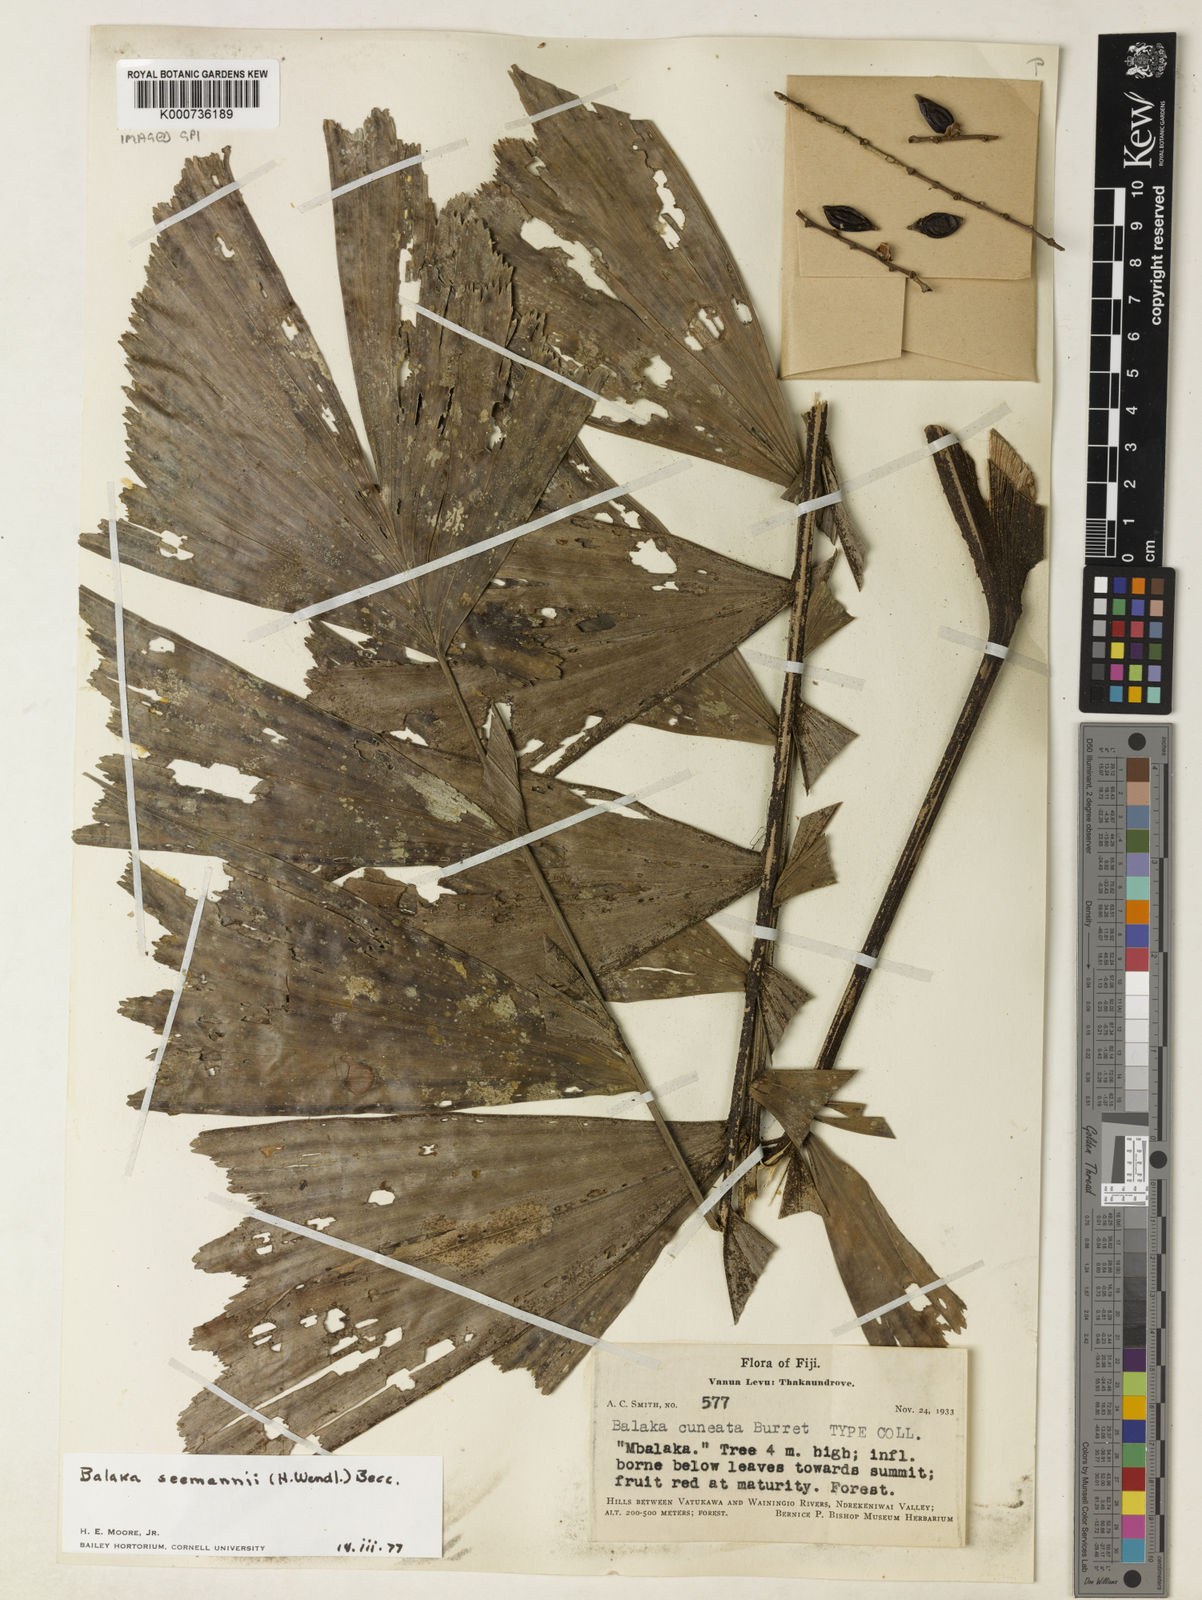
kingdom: Plantae
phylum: Tracheophyta
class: Liliopsida
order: Arecales
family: Arecaceae
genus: Balaka
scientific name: Balaka seemannii
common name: Balaka palm
